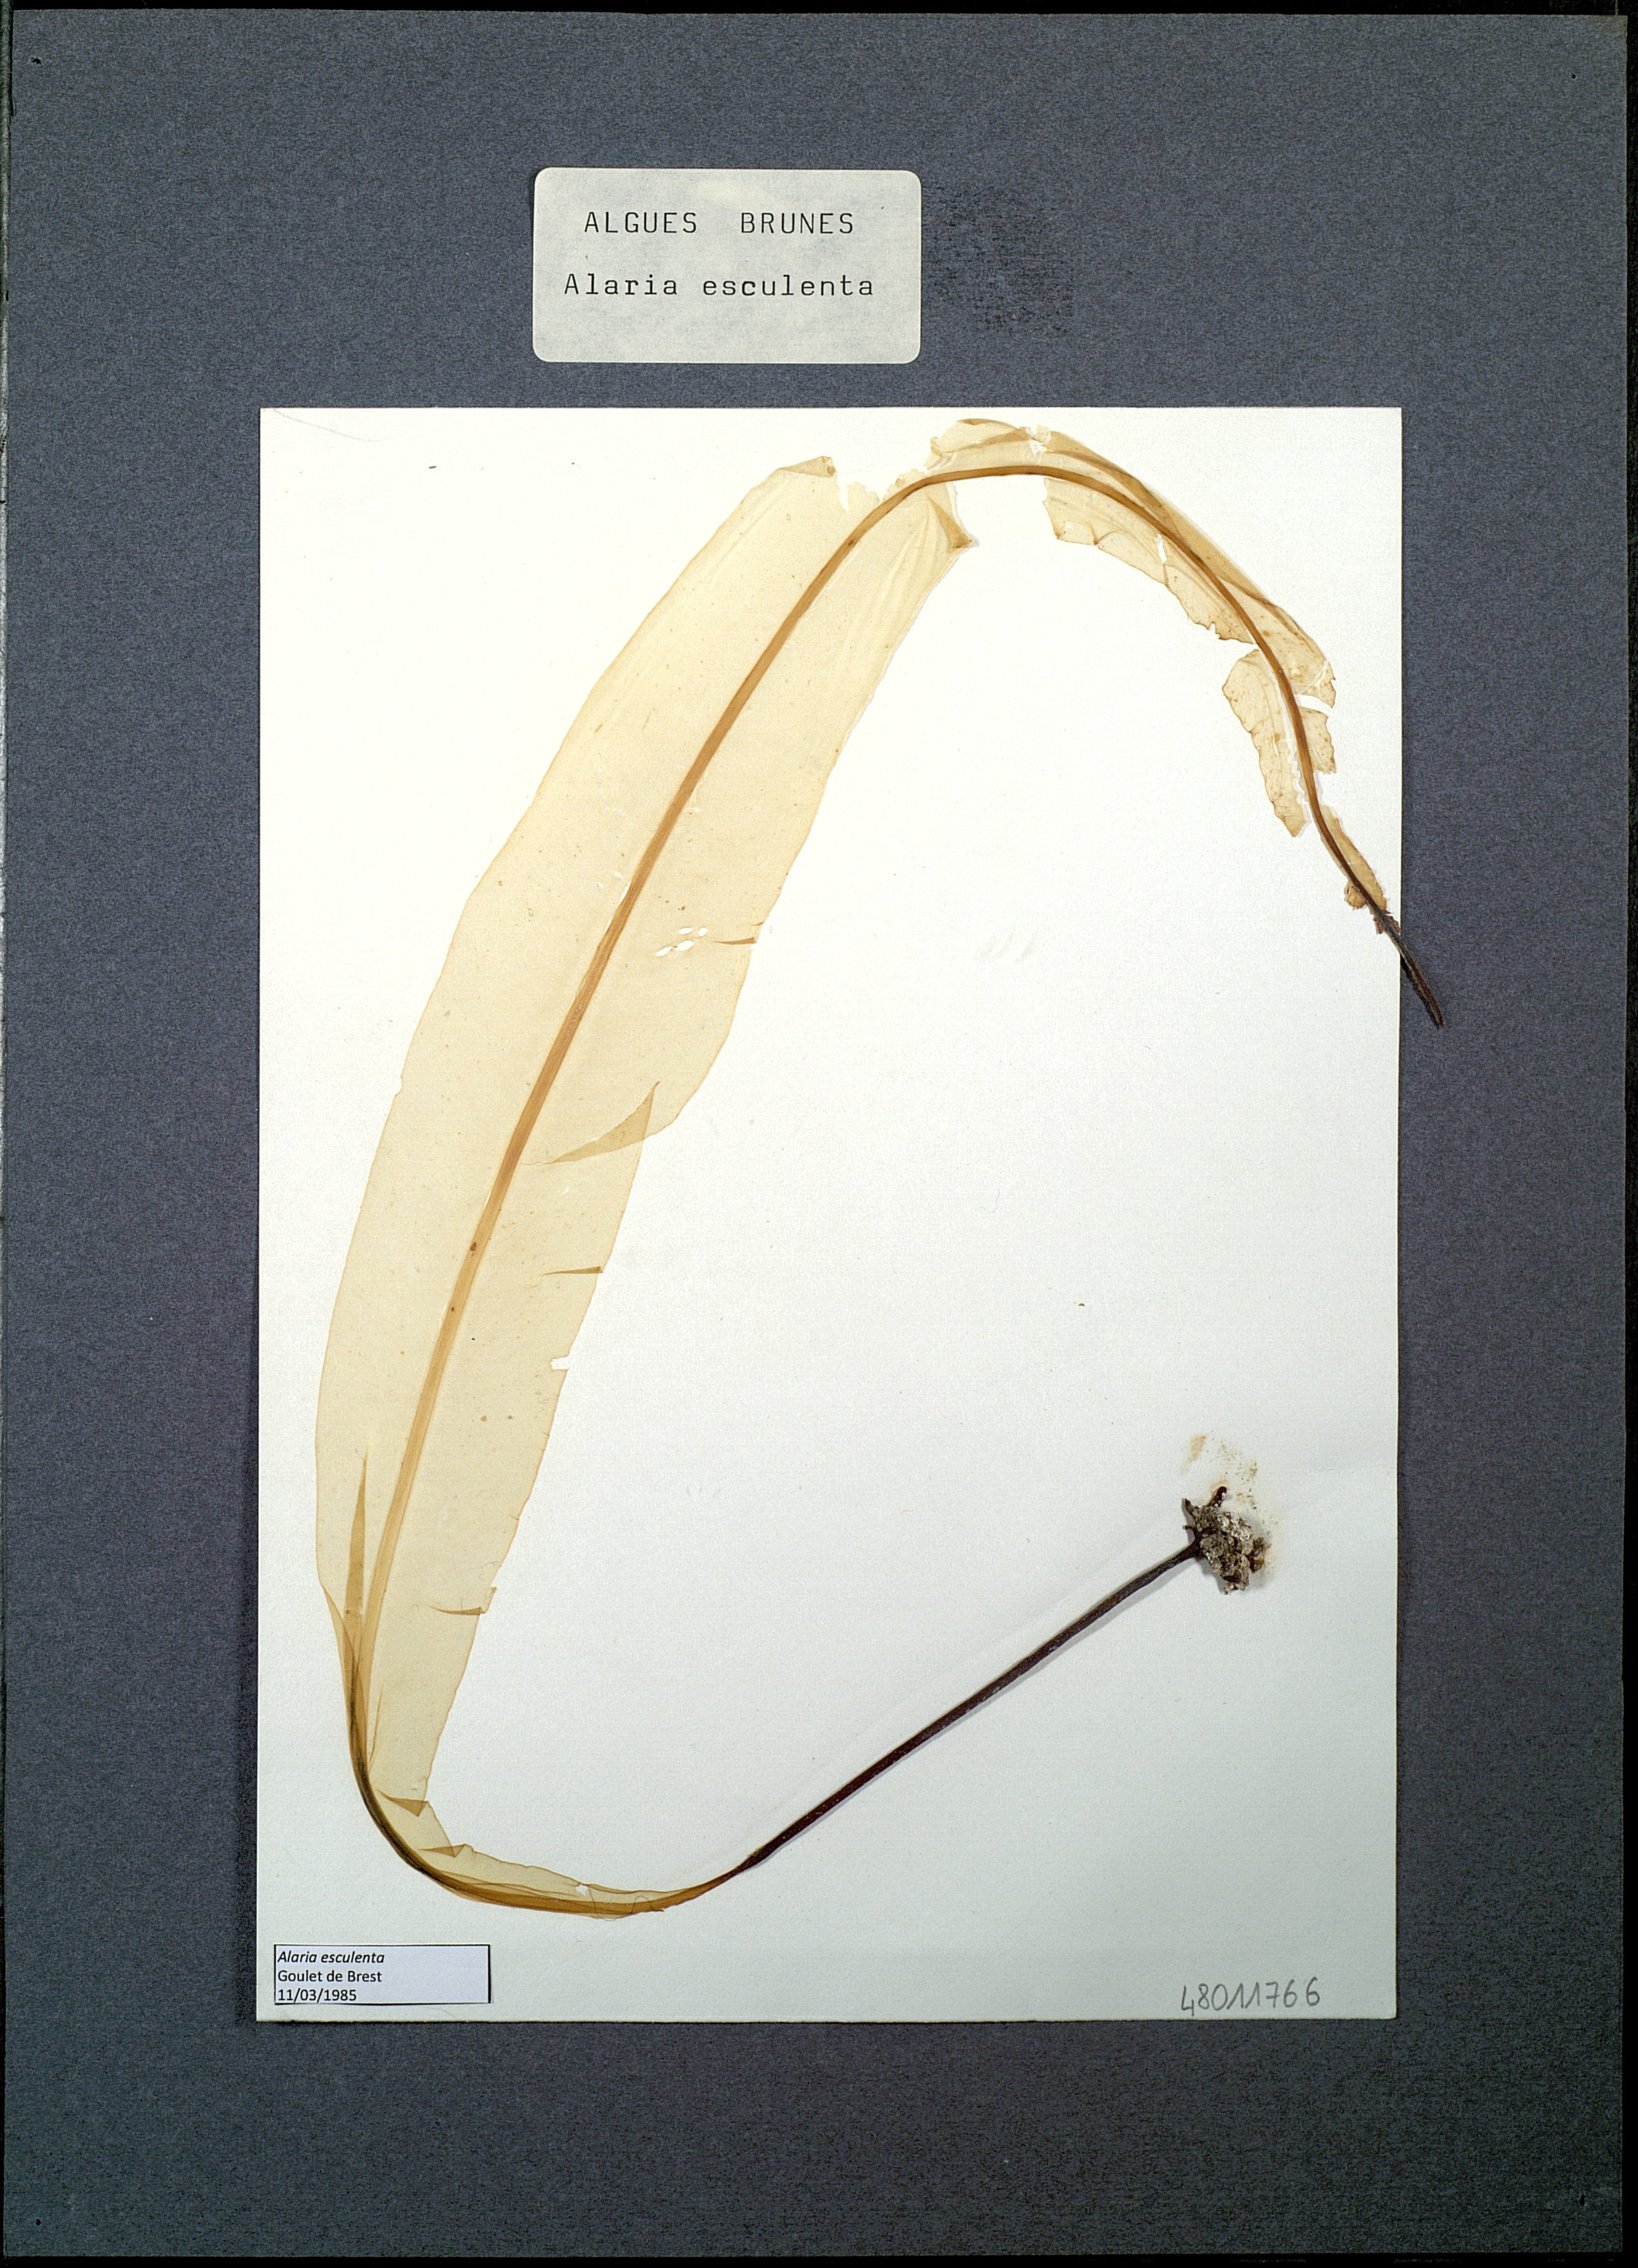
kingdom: Chromista
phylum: Ochrophyta
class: Phaeophyceae
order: Laminariales
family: Alariaceae
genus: Alaria
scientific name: Alaria esculenta
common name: Dabberlocks
